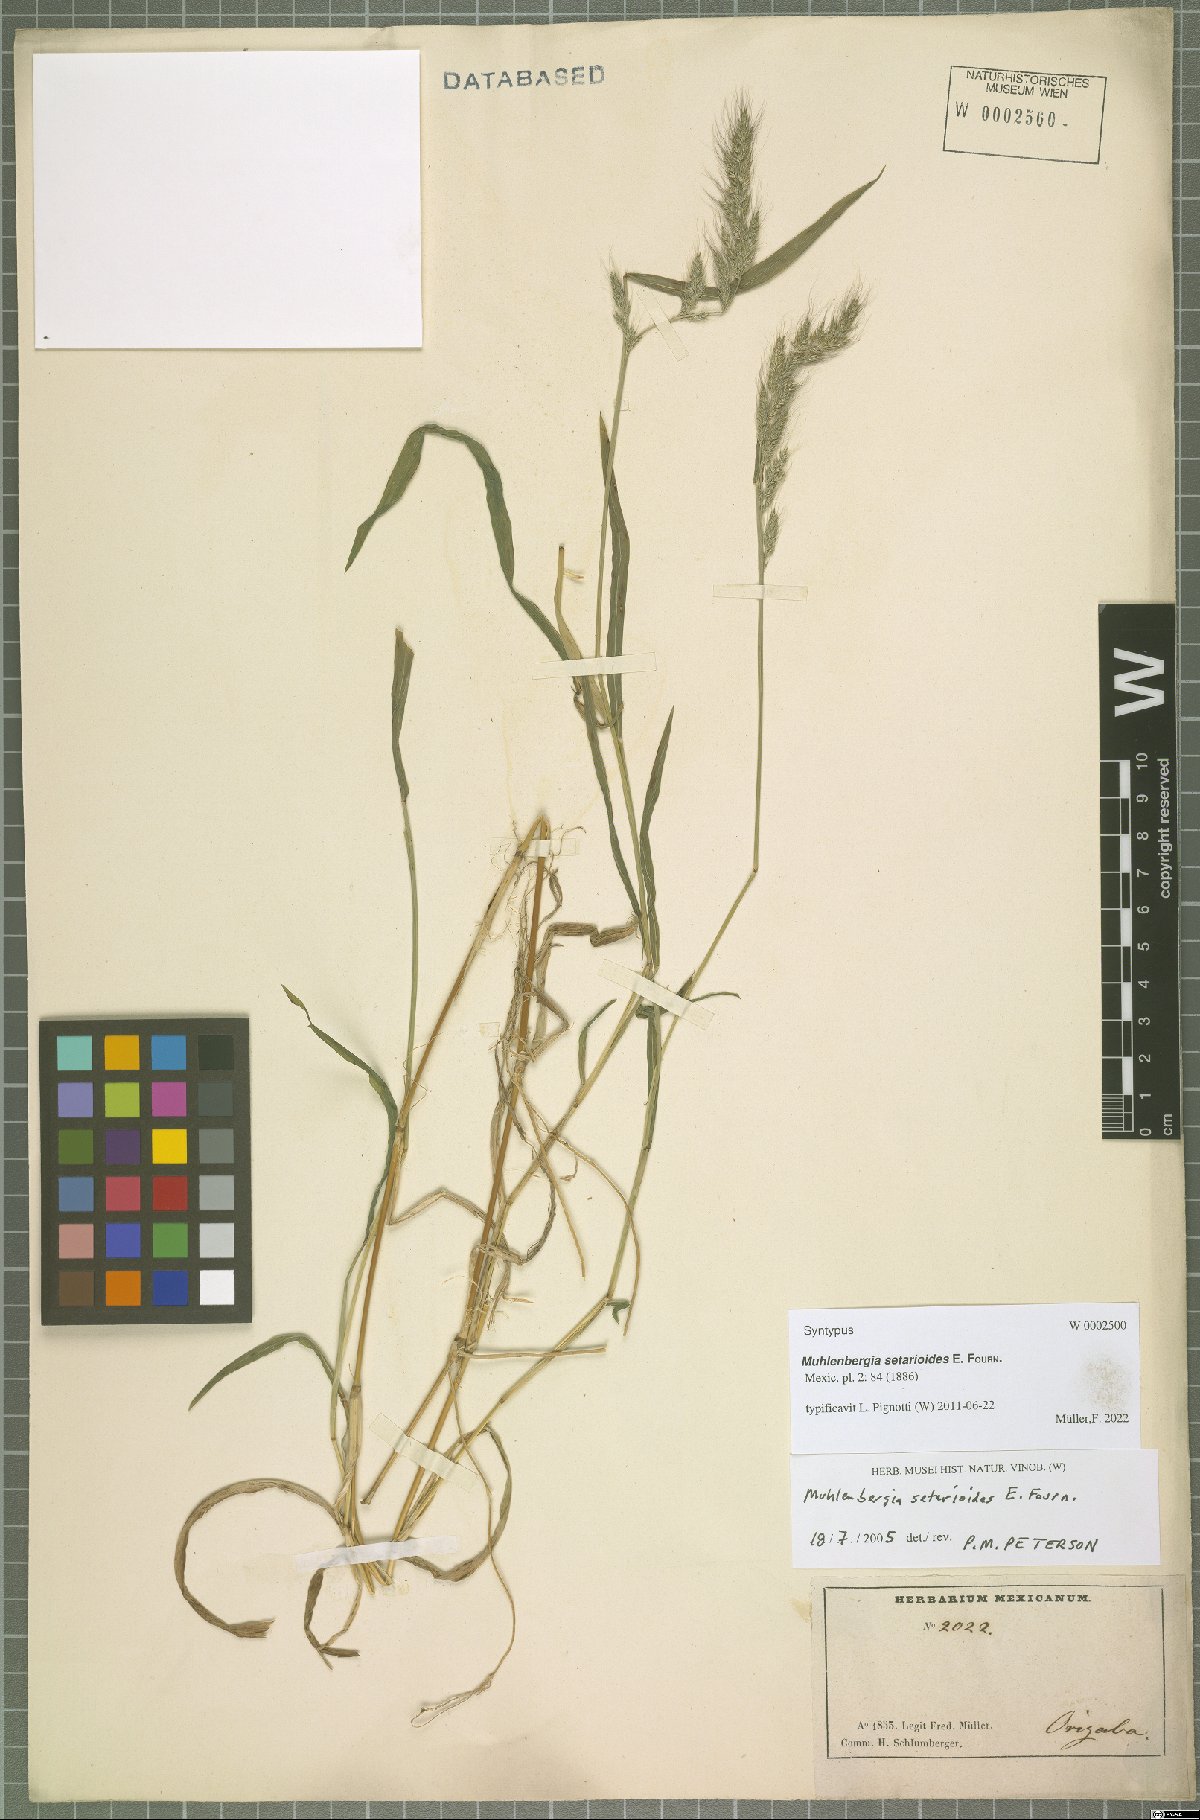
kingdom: Plantae
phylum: Tracheophyta
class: Liliopsida
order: Poales
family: Poaceae
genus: Muhlenbergia
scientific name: Muhlenbergia setarioides
